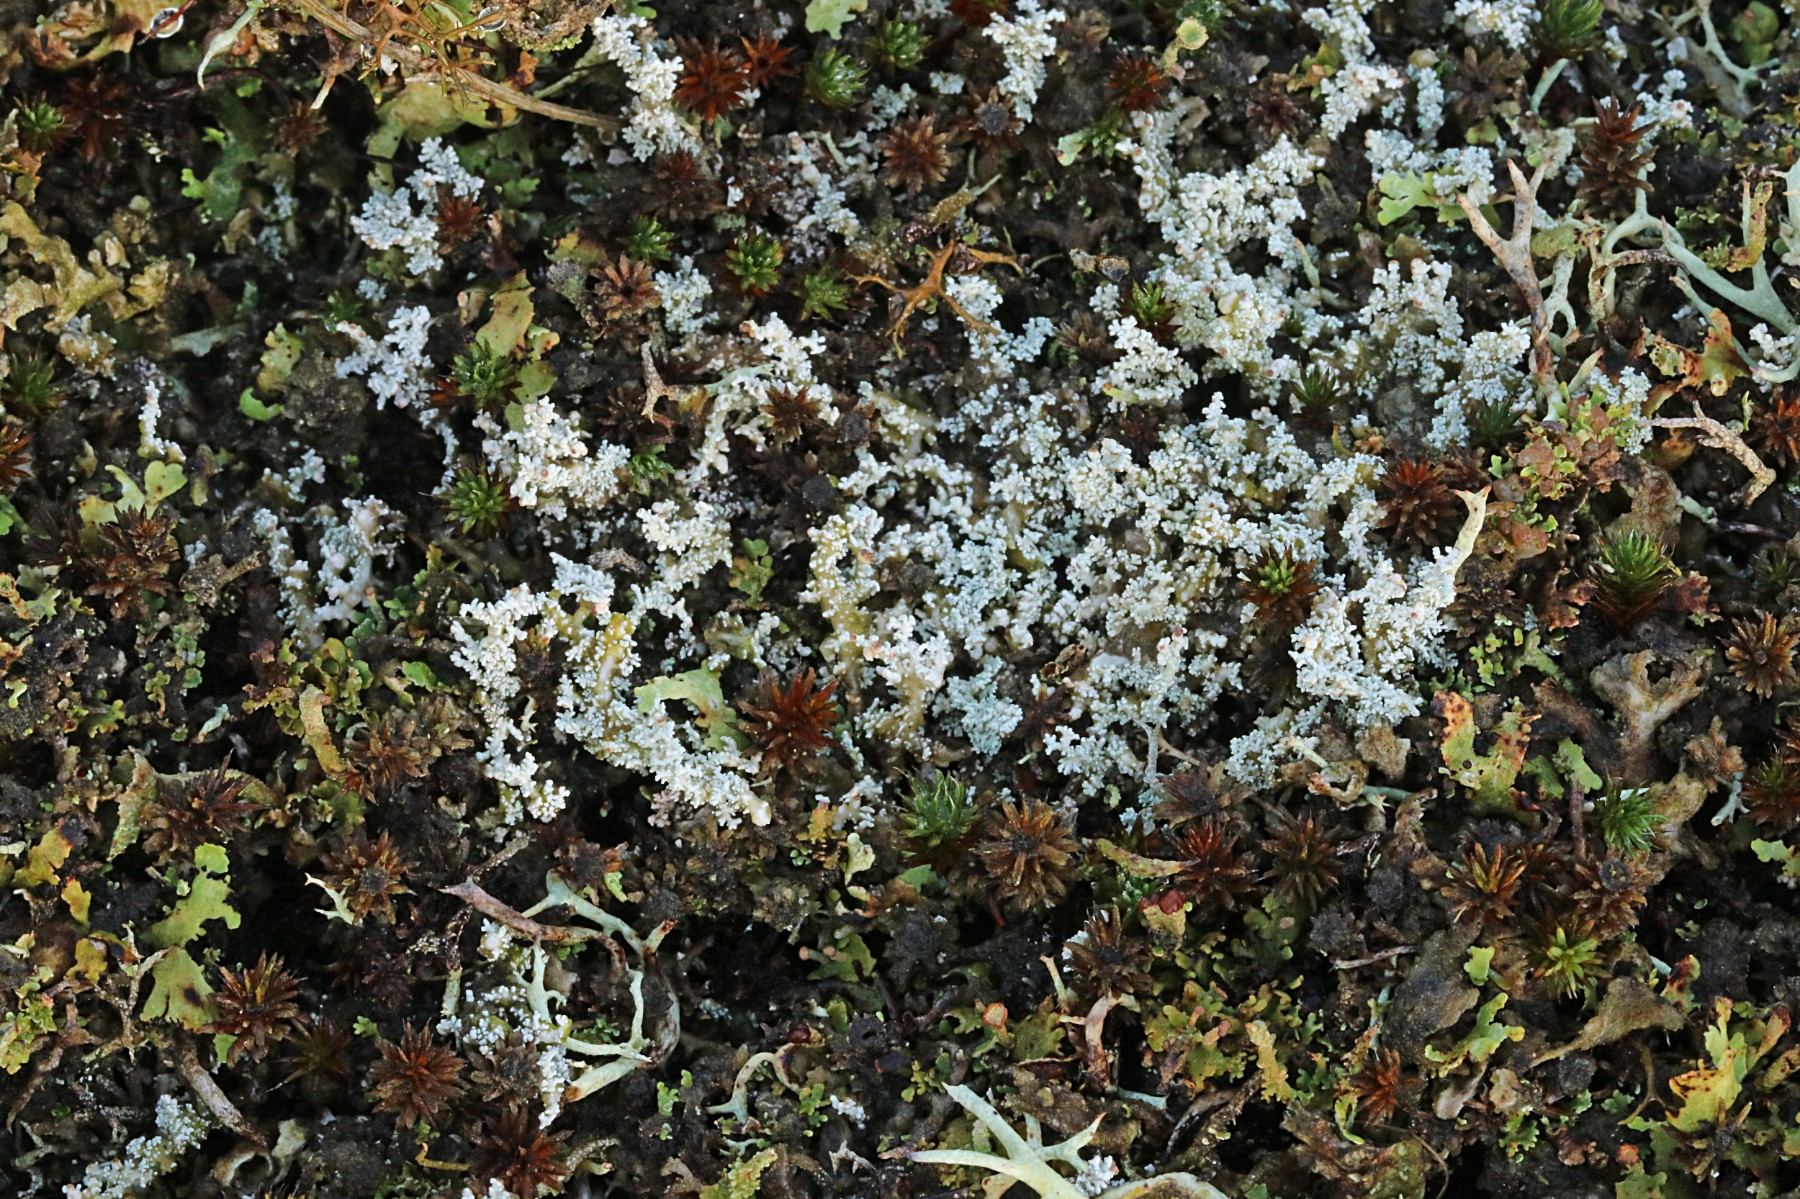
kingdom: Fungi
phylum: Ascomycota
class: Lecanoromycetes
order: Lecanorales
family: Stereocaulaceae
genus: Stereocaulon
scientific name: Stereocaulon saxatile
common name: klit-korallav
